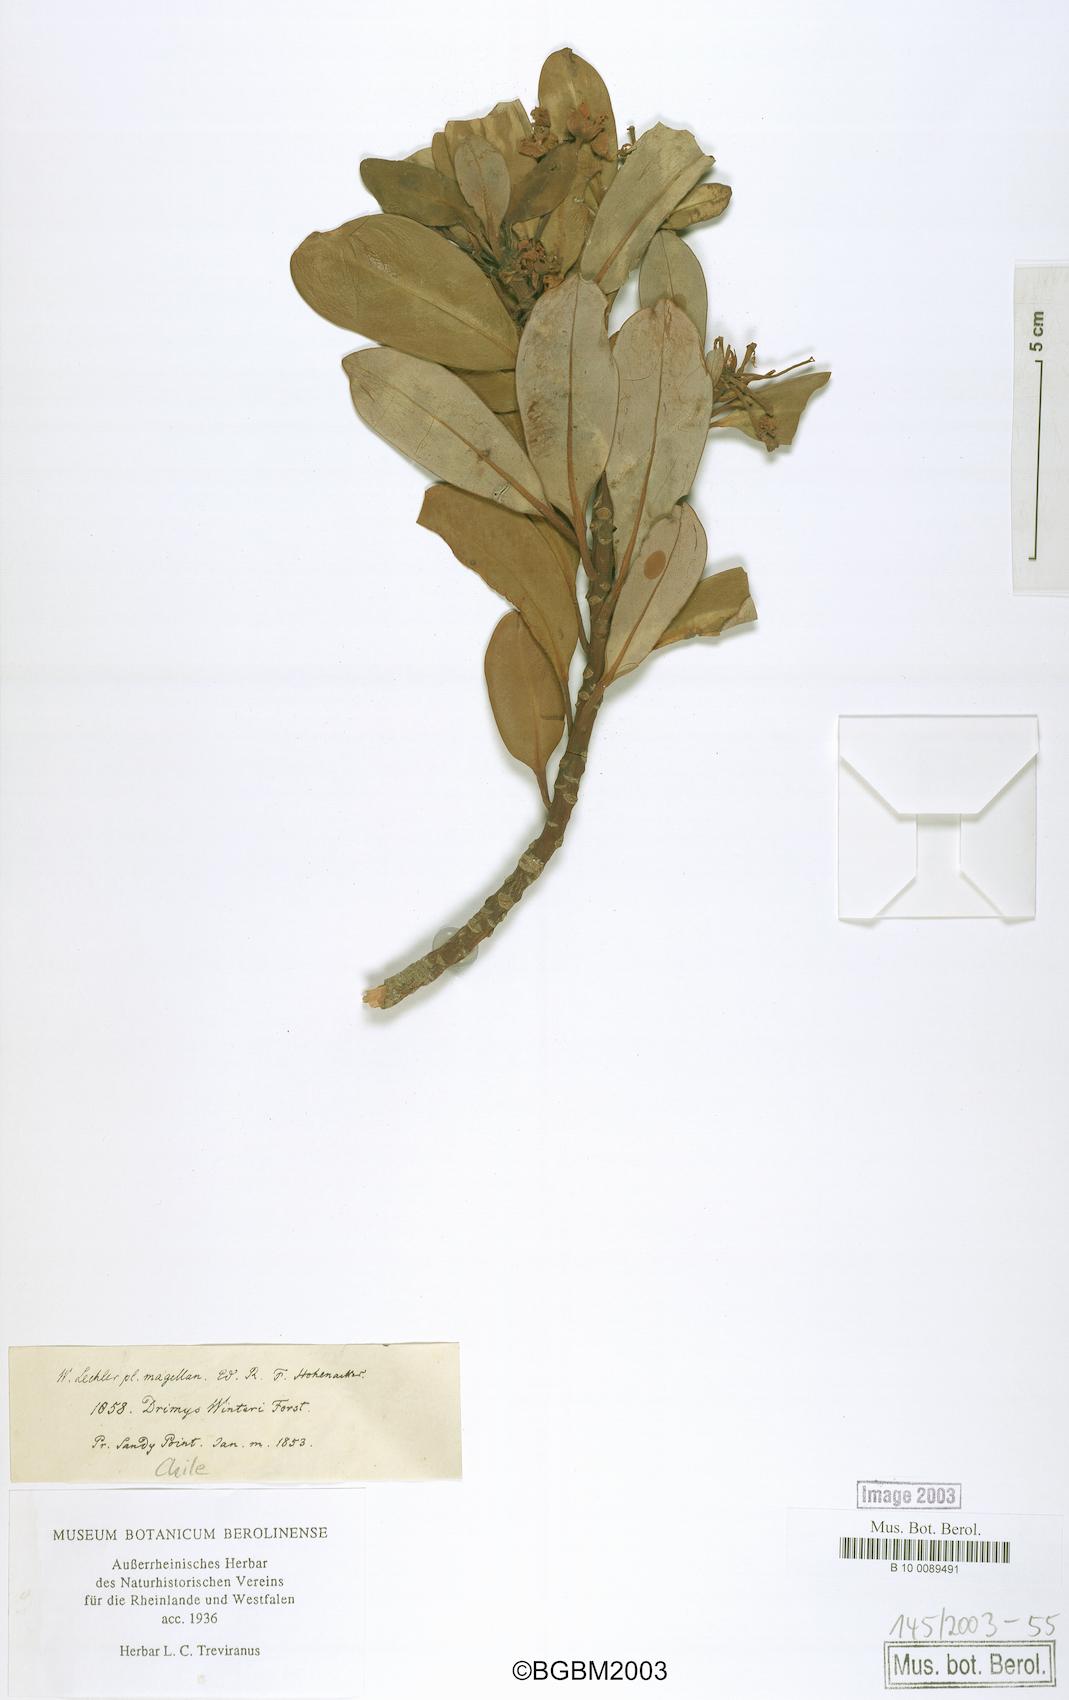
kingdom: Plantae
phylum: Tracheophyta
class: Magnoliopsida
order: Canellales
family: Winteraceae
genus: Drimys
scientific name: Drimys winteri
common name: Winter's-bark
